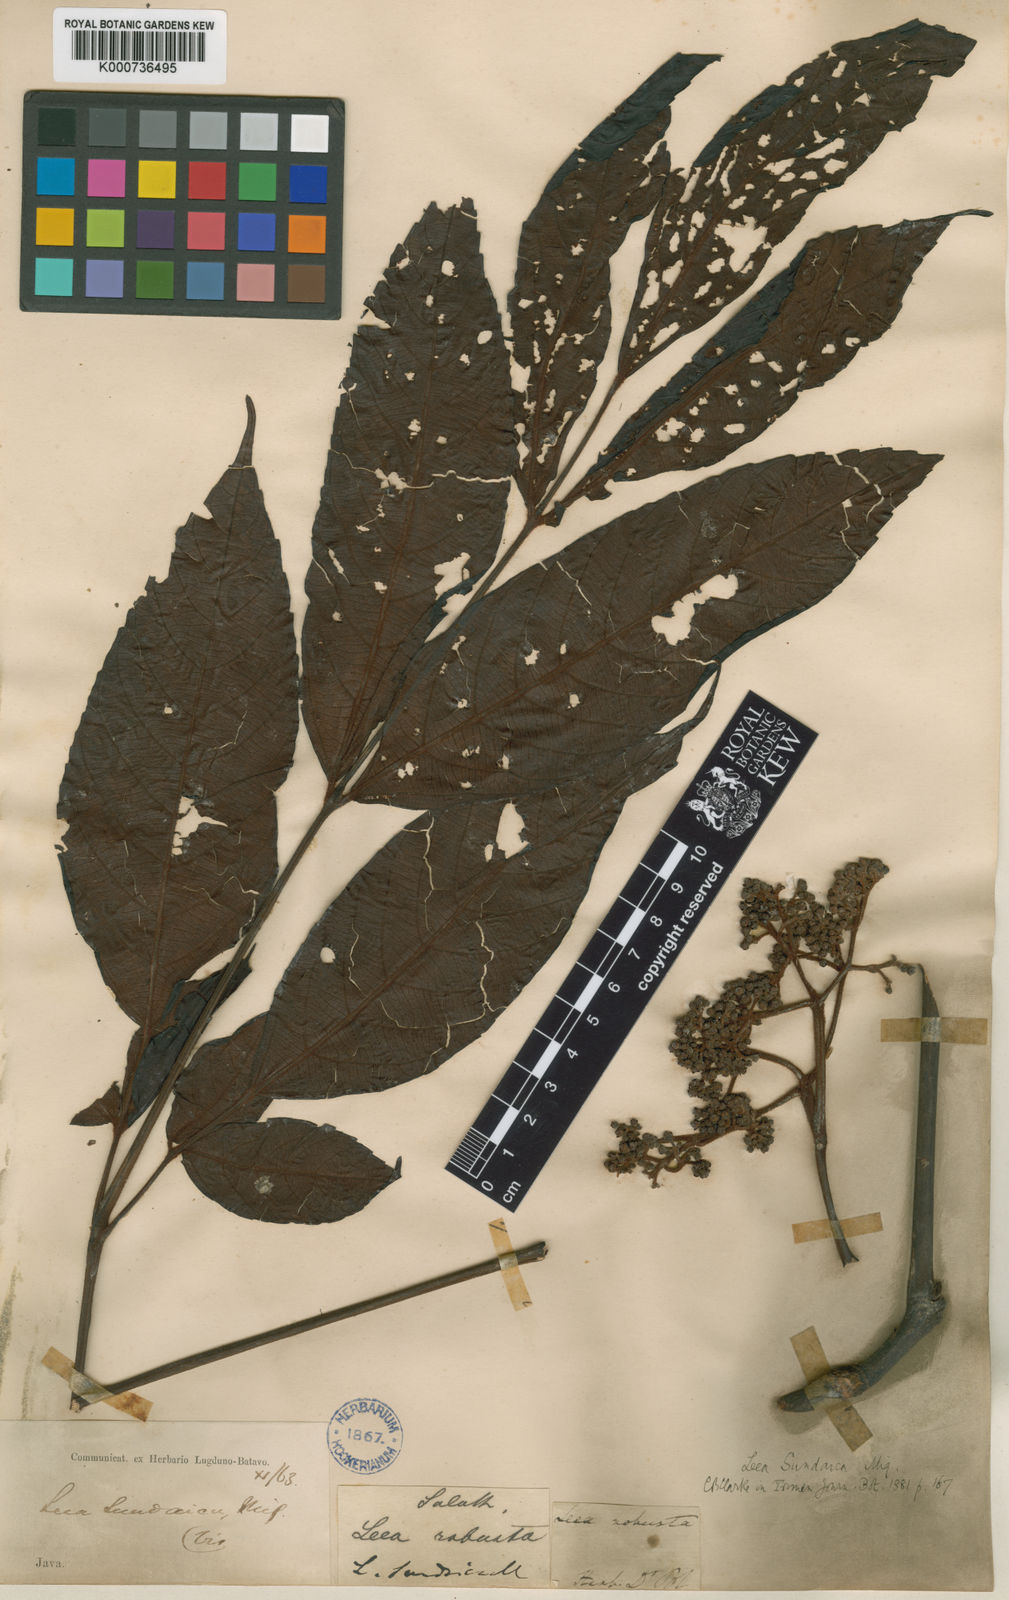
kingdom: Plantae
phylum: Tracheophyta
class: Magnoliopsida
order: Vitales
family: Vitaceae
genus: Leea
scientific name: Leea indica
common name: Bandicoot-berry
